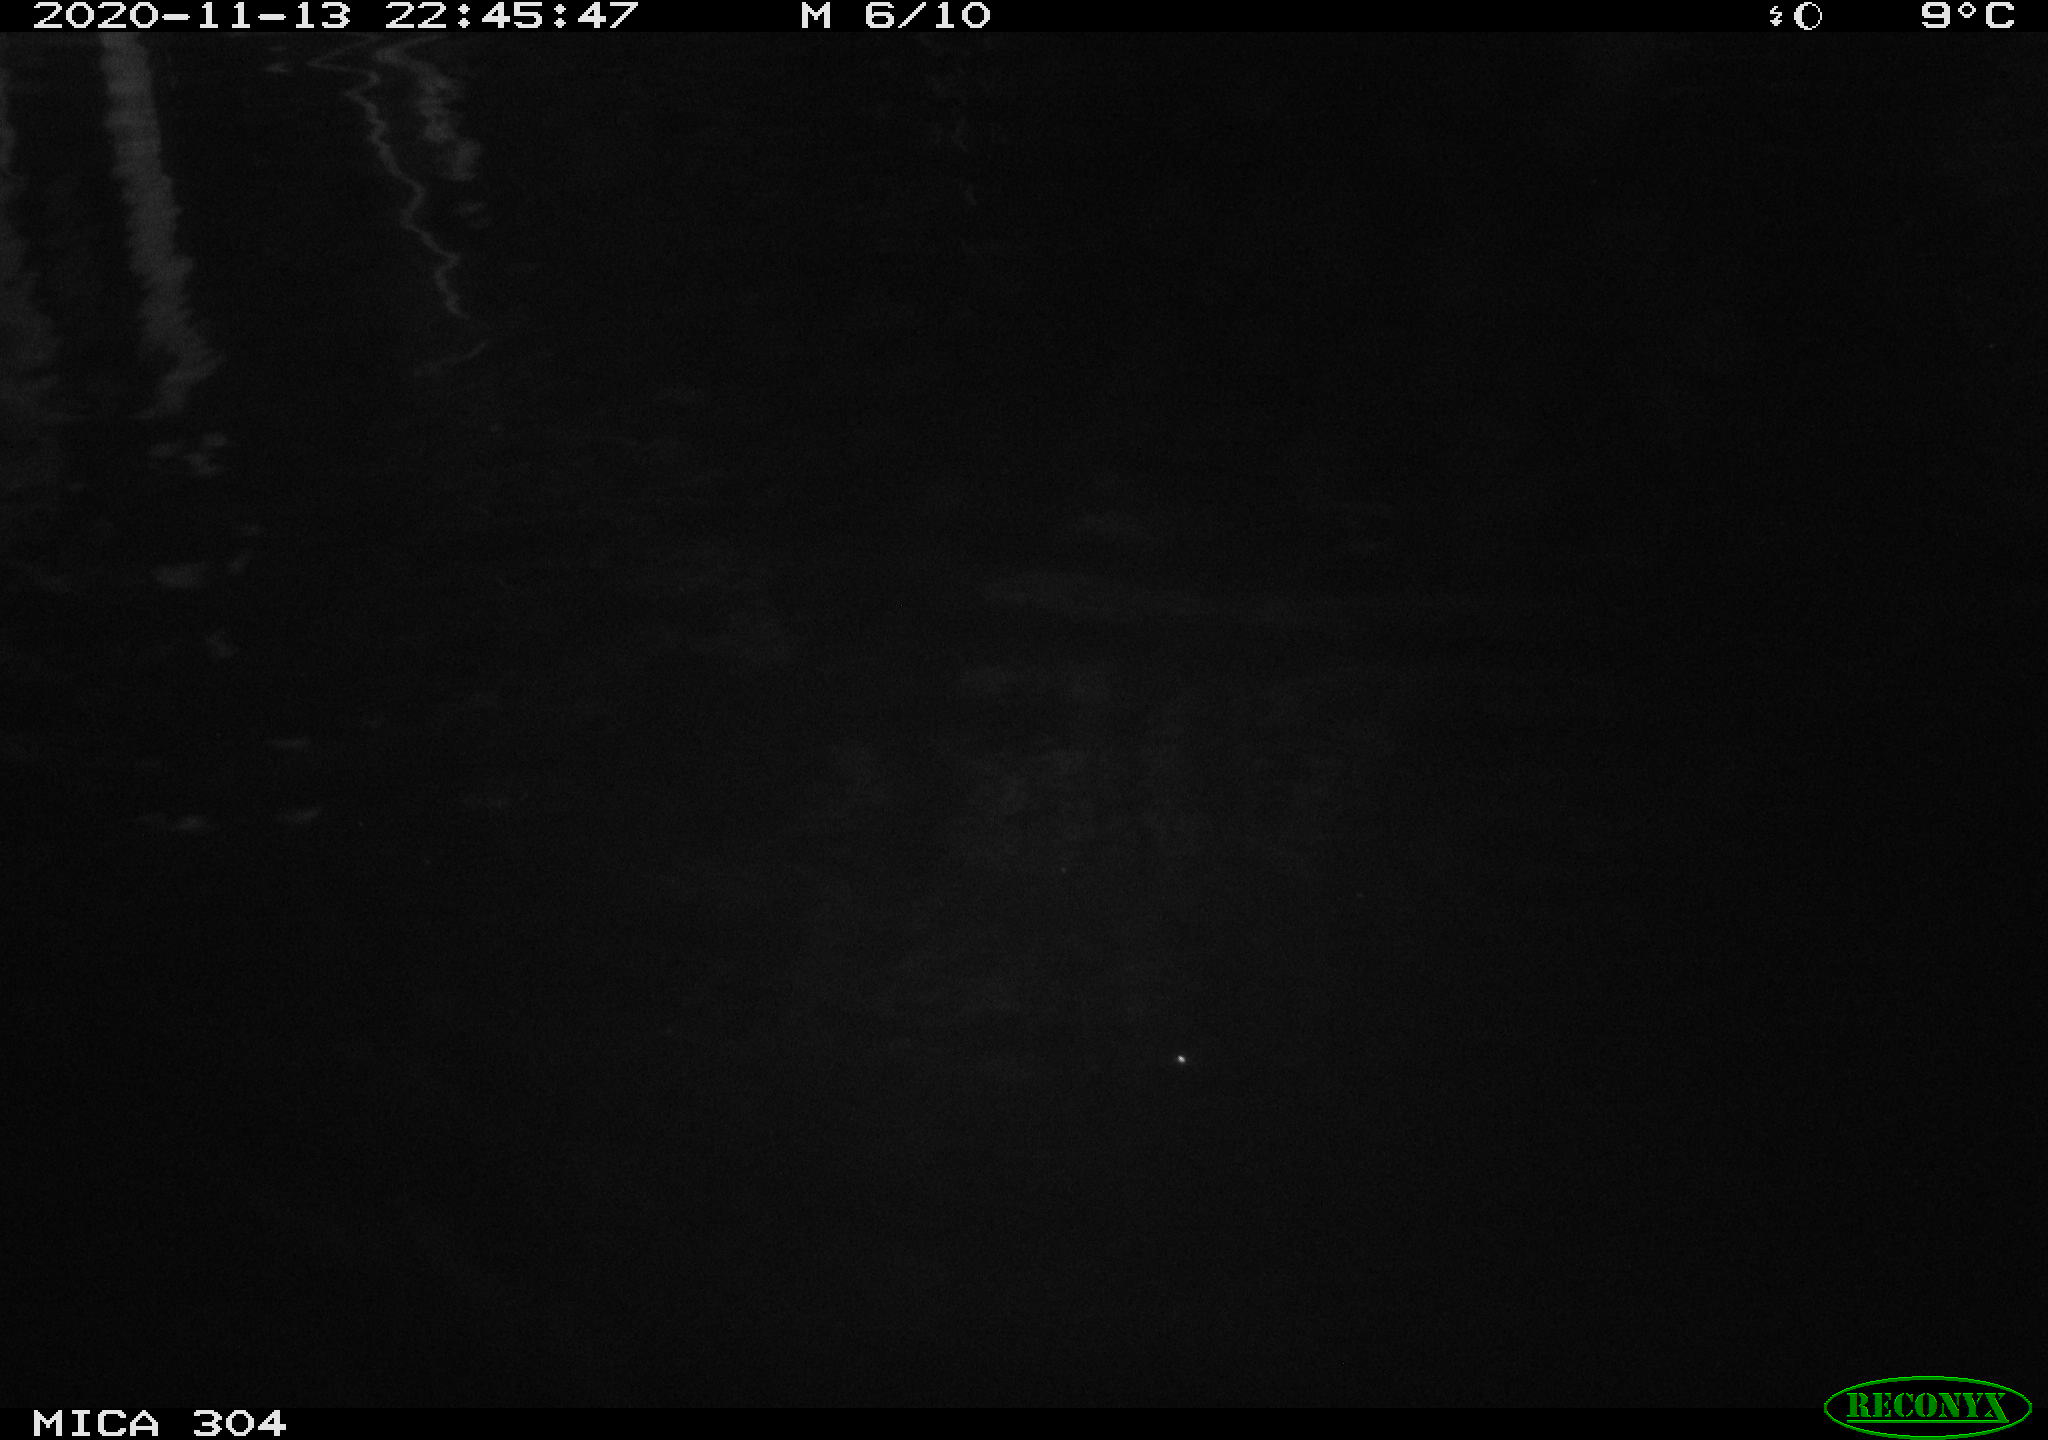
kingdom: Animalia
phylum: Chordata
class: Mammalia
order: Rodentia
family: Muridae
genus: Rattus
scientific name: Rattus norvegicus
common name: Brown rat
